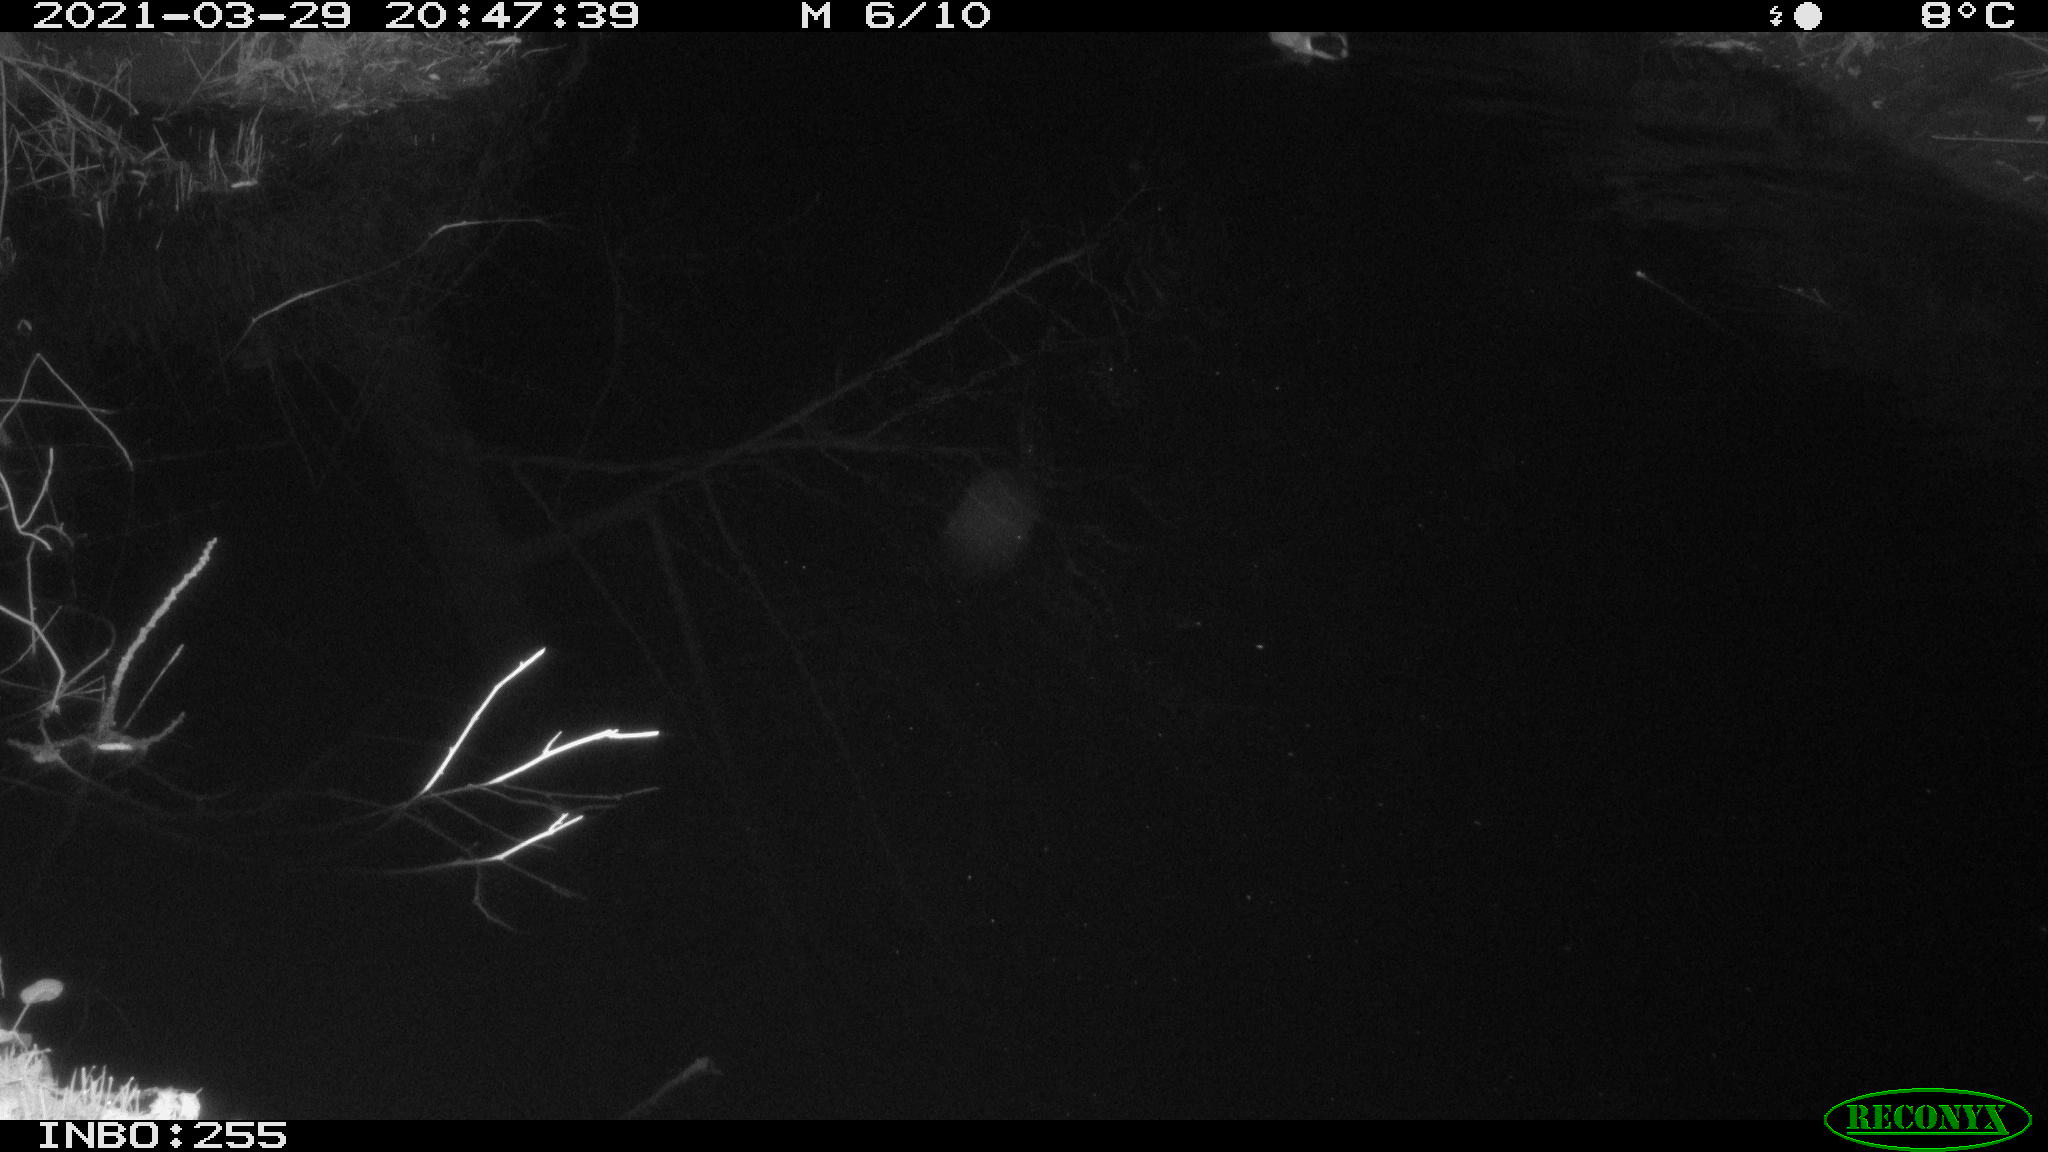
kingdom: Animalia
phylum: Chordata
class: Aves
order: Anseriformes
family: Anatidae
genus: Anas
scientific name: Anas platyrhynchos
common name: Mallard
